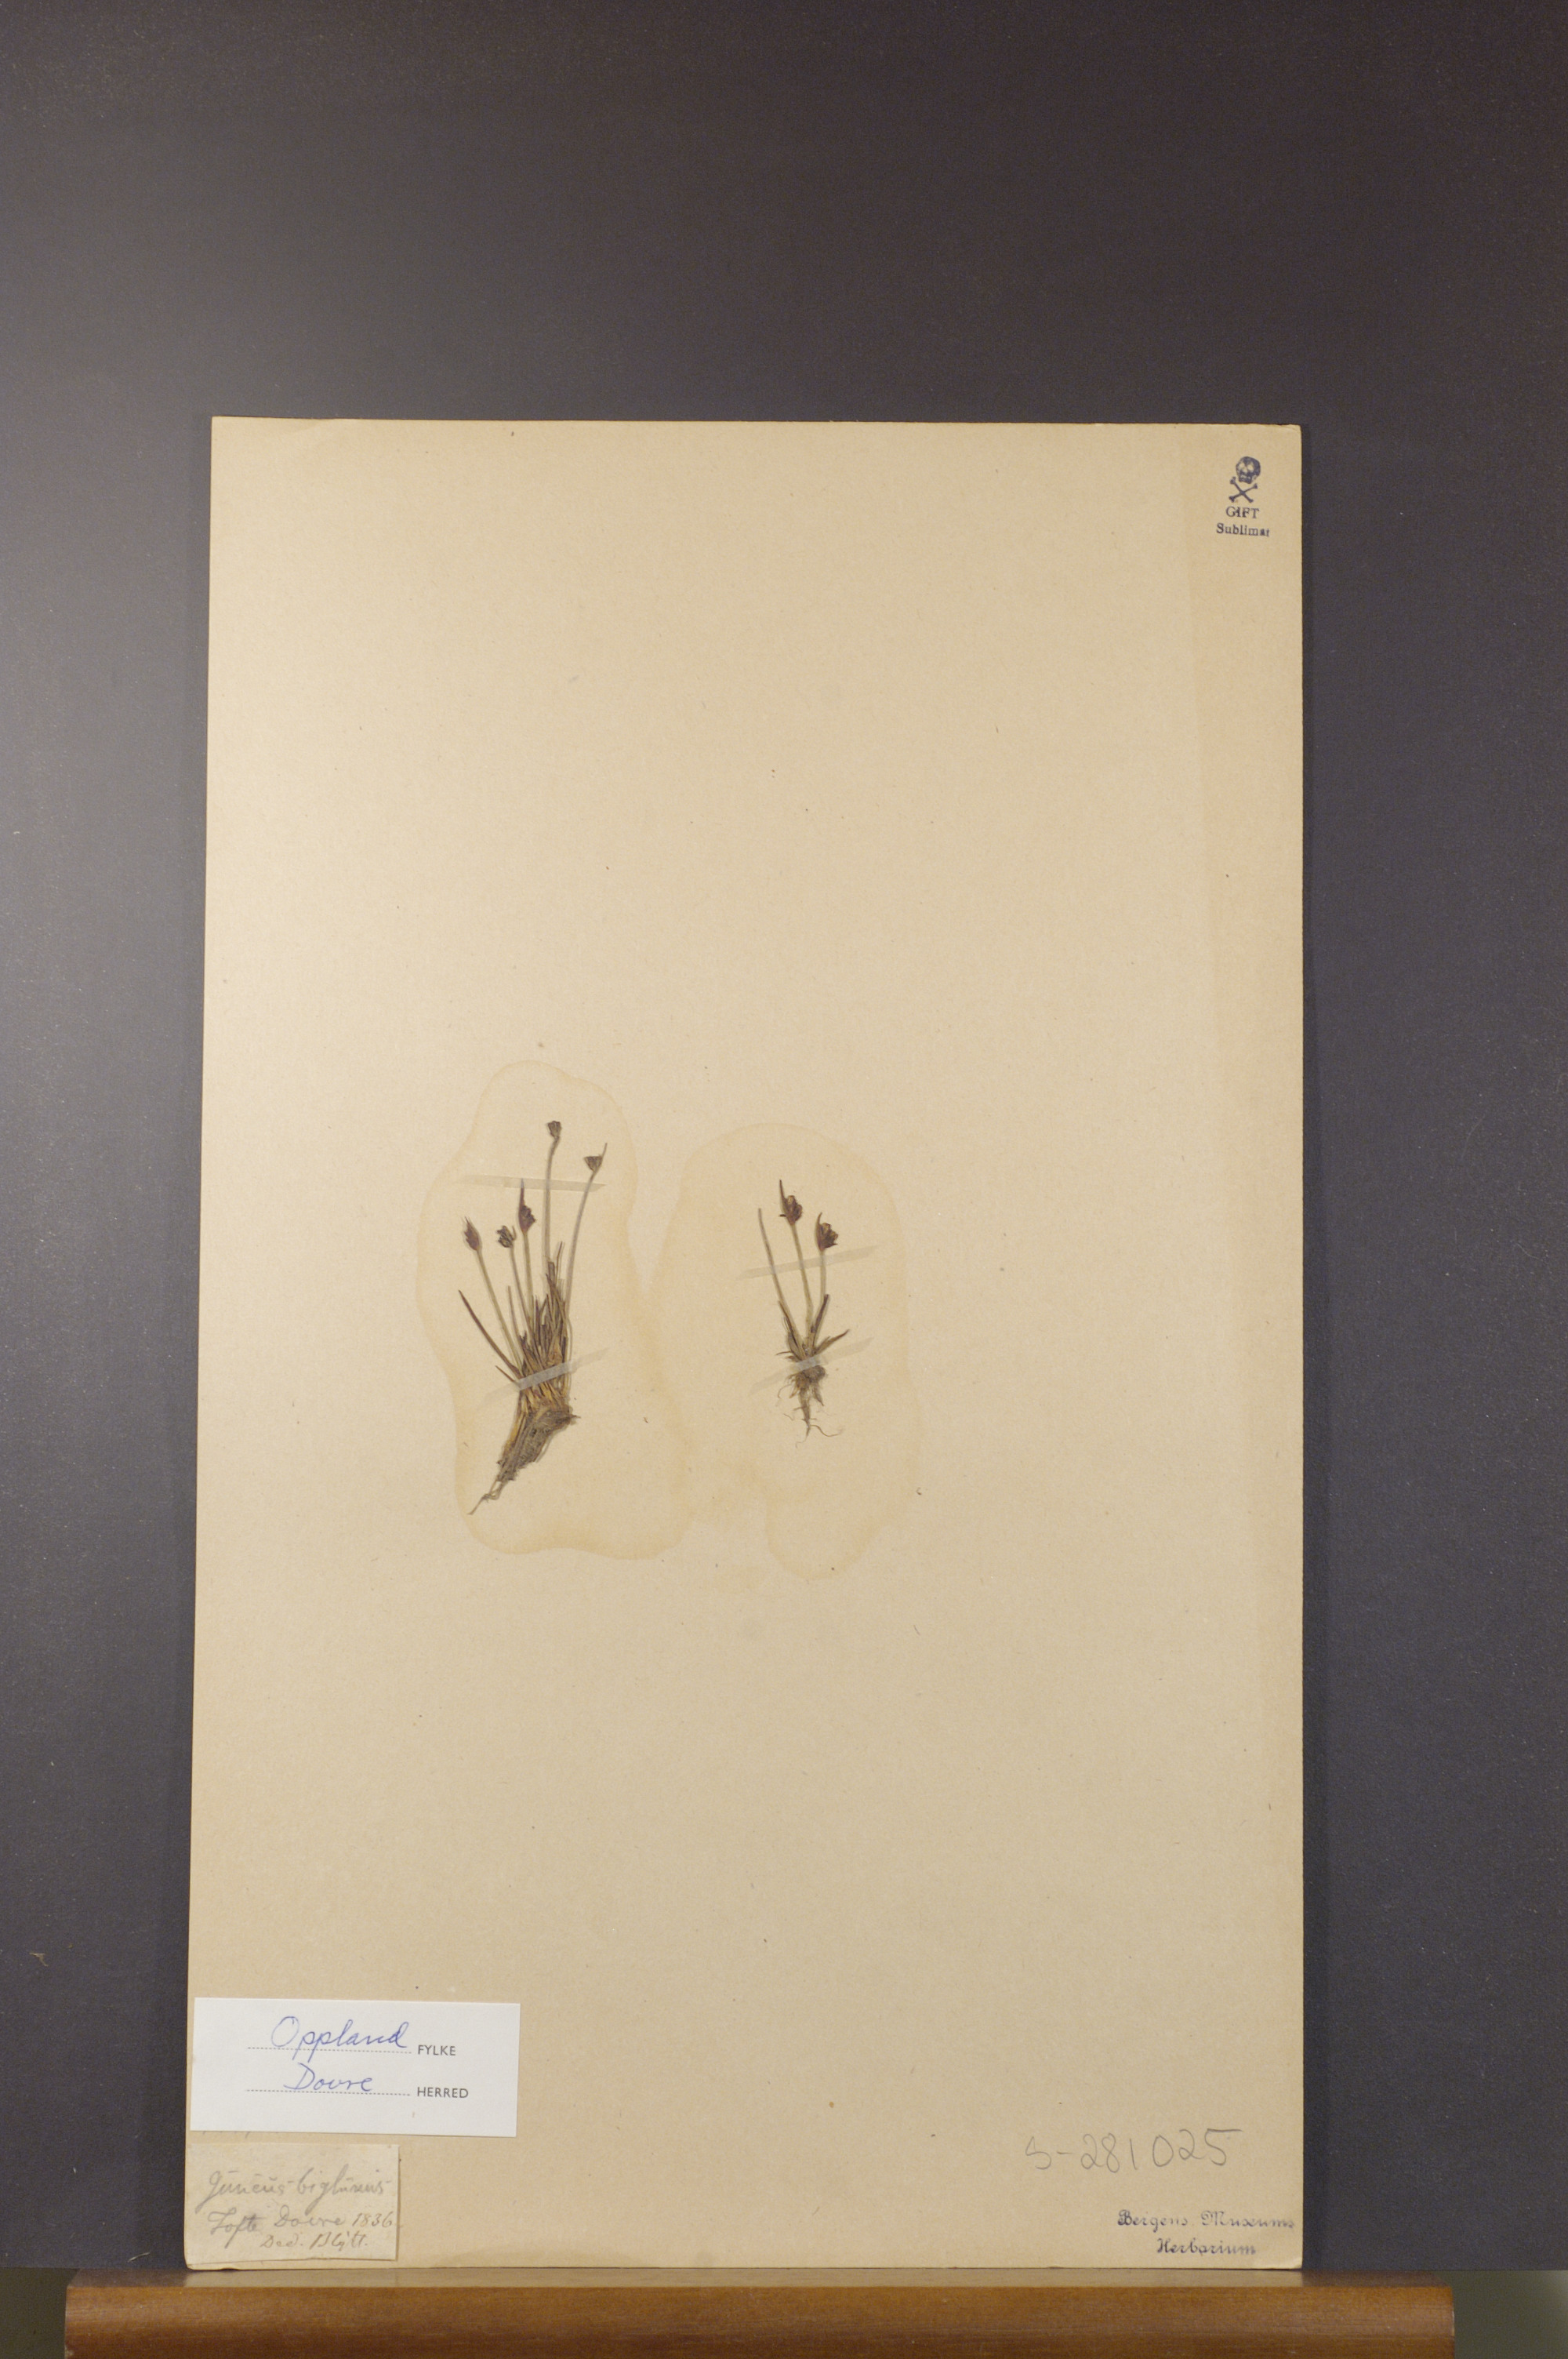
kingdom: Plantae
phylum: Tracheophyta
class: Liliopsida
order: Poales
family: Juncaceae
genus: Juncus
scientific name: Juncus biglumis
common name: Two-flowered rush
